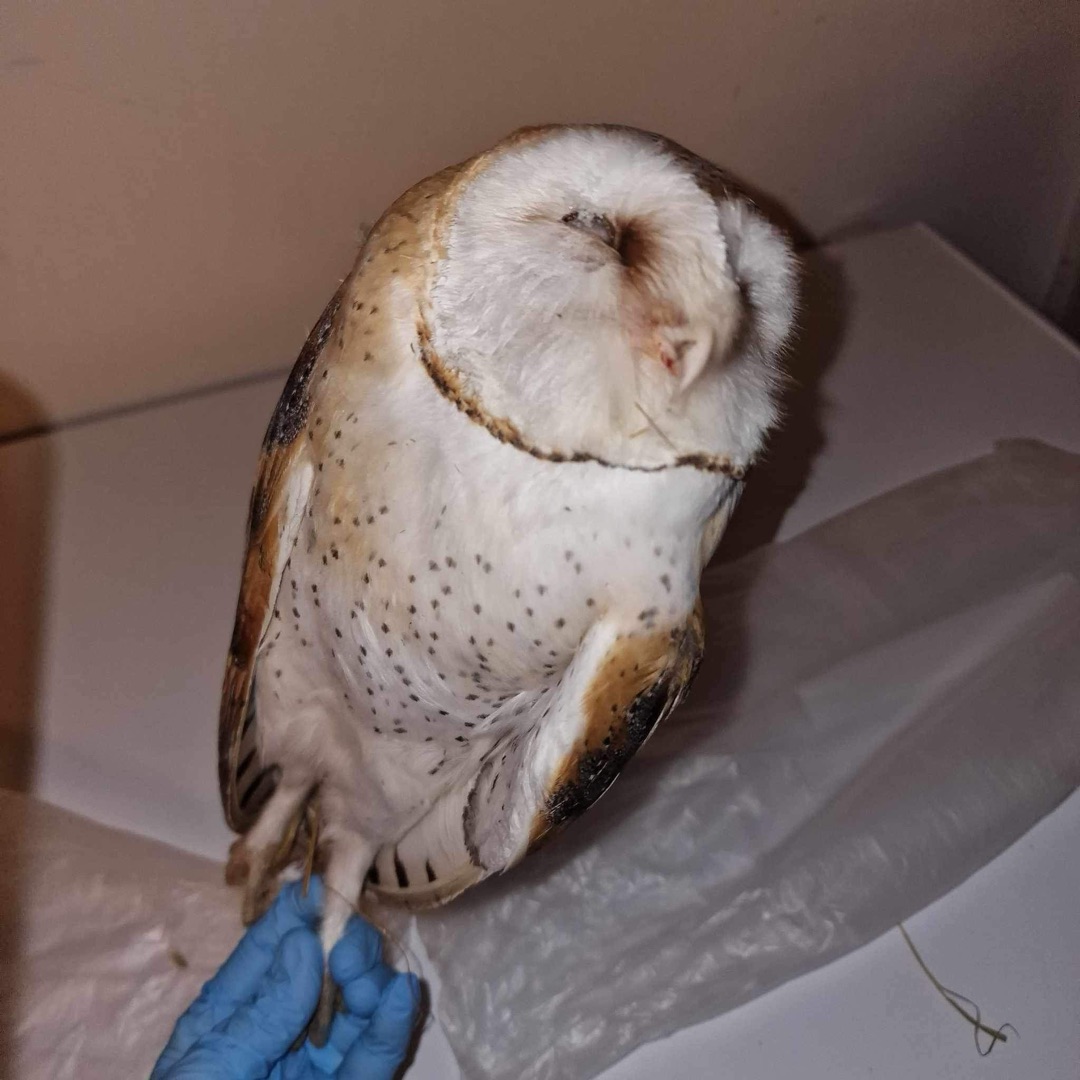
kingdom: Animalia
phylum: Chordata
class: Aves
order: Strigiformes
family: Tytonidae
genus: Tyto
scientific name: Tyto alba
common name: Slørugle
